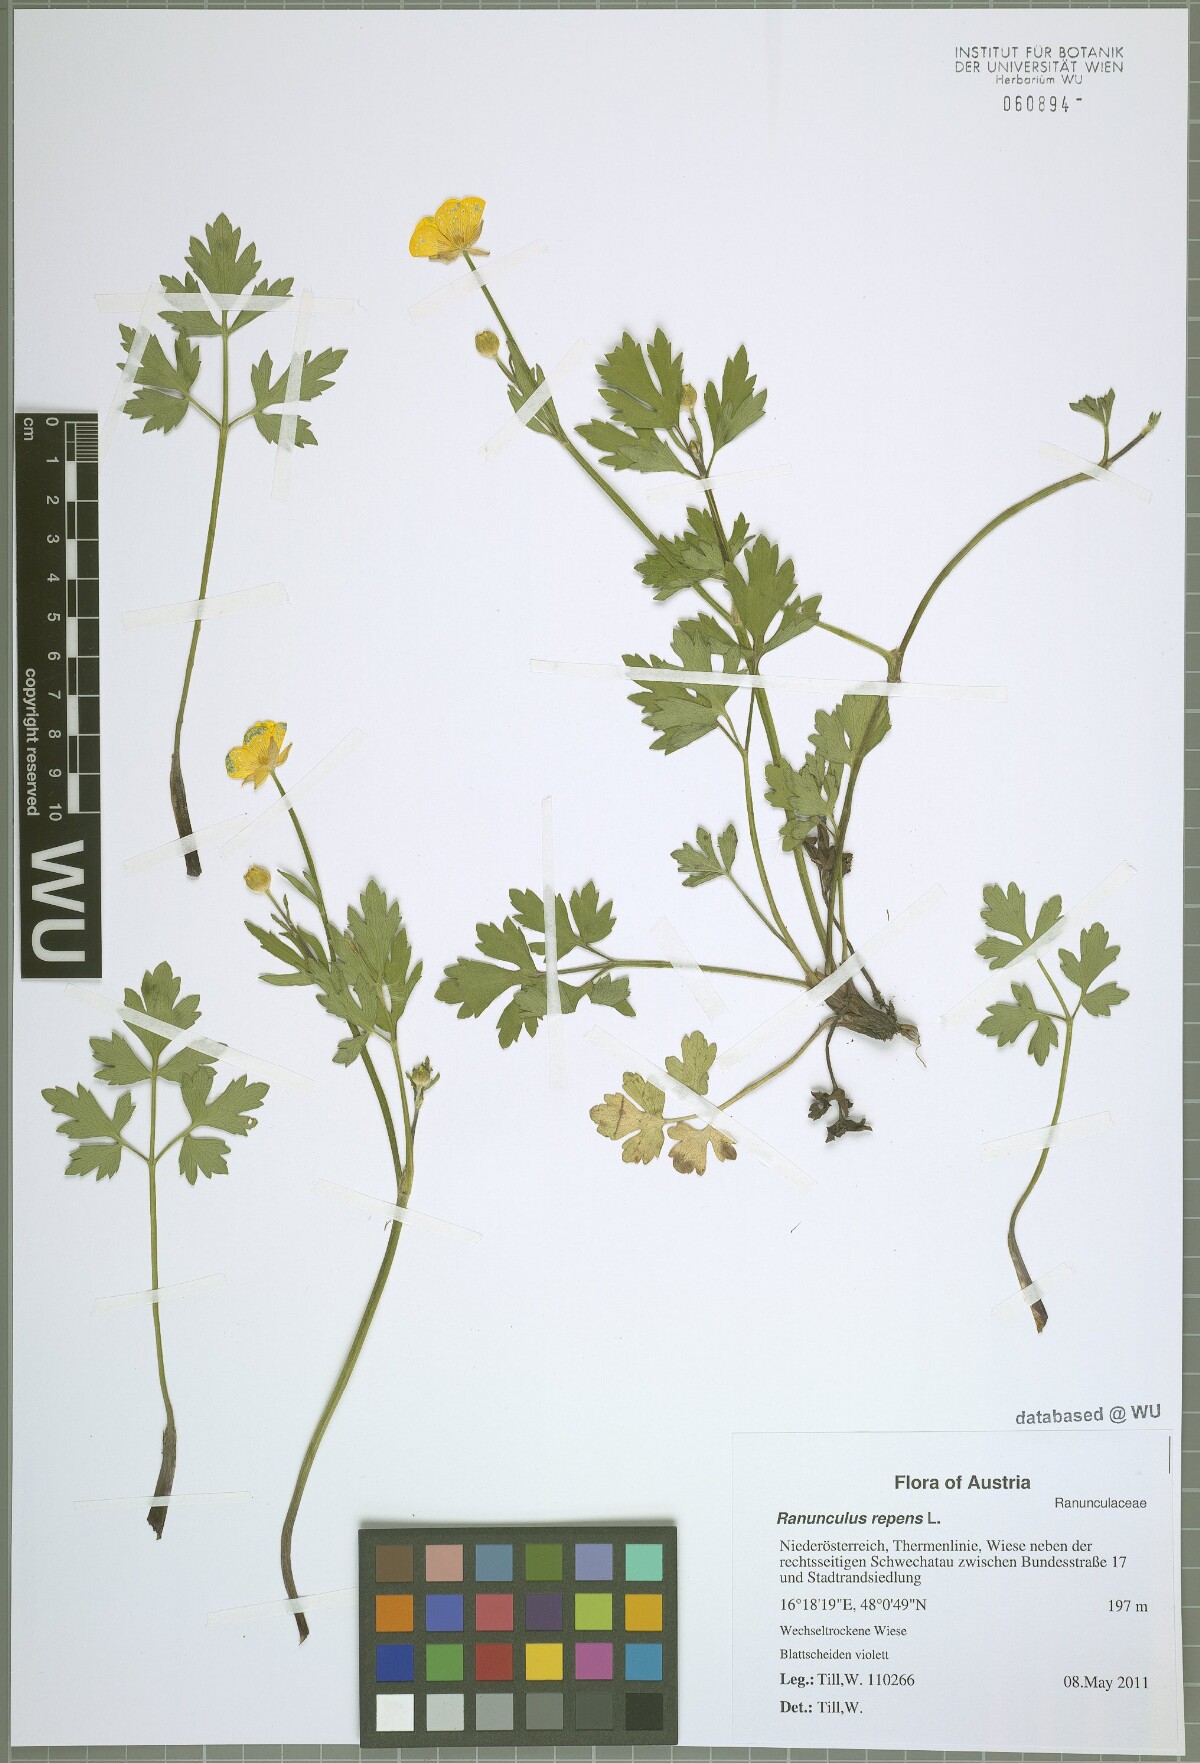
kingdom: Plantae
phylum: Tracheophyta
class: Magnoliopsida
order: Ranunculales
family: Ranunculaceae
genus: Ranunculus
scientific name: Ranunculus repens
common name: Creeping buttercup
